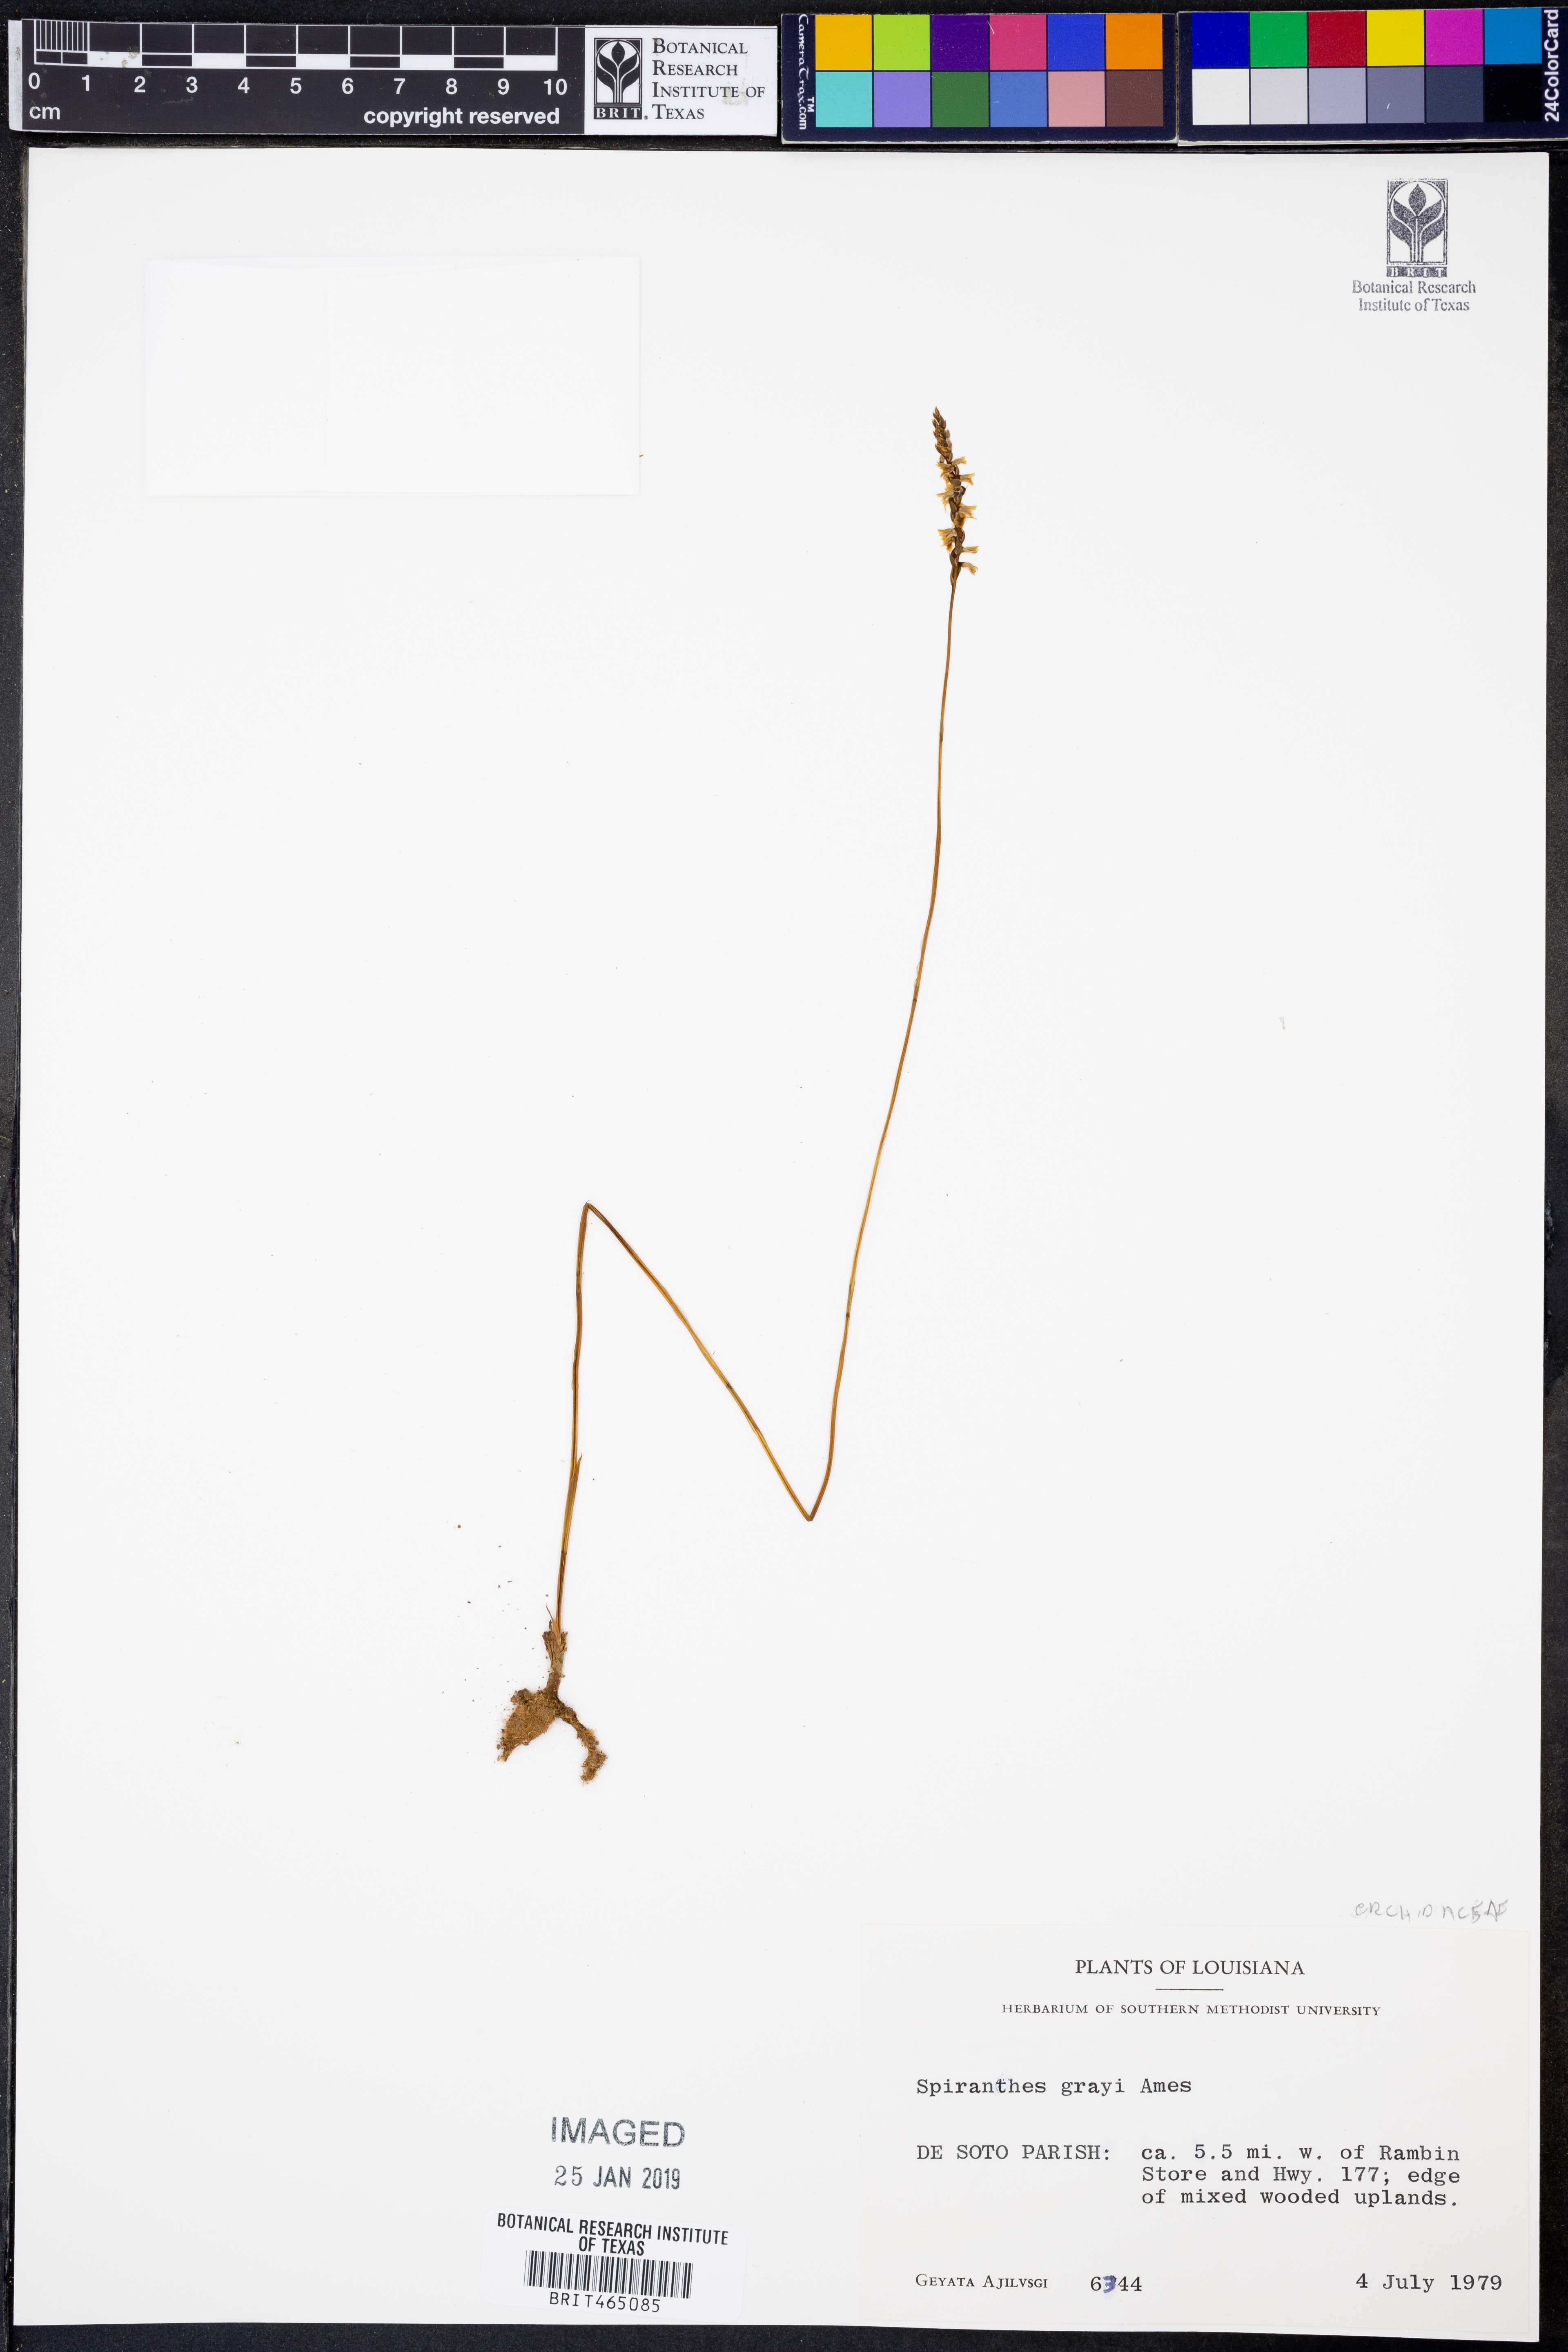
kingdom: Plantae
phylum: Tracheophyta
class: Liliopsida
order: Asparagales
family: Orchidaceae
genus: Spiranthes
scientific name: Spiranthes tuberosa
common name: Little ladies'-tresses
